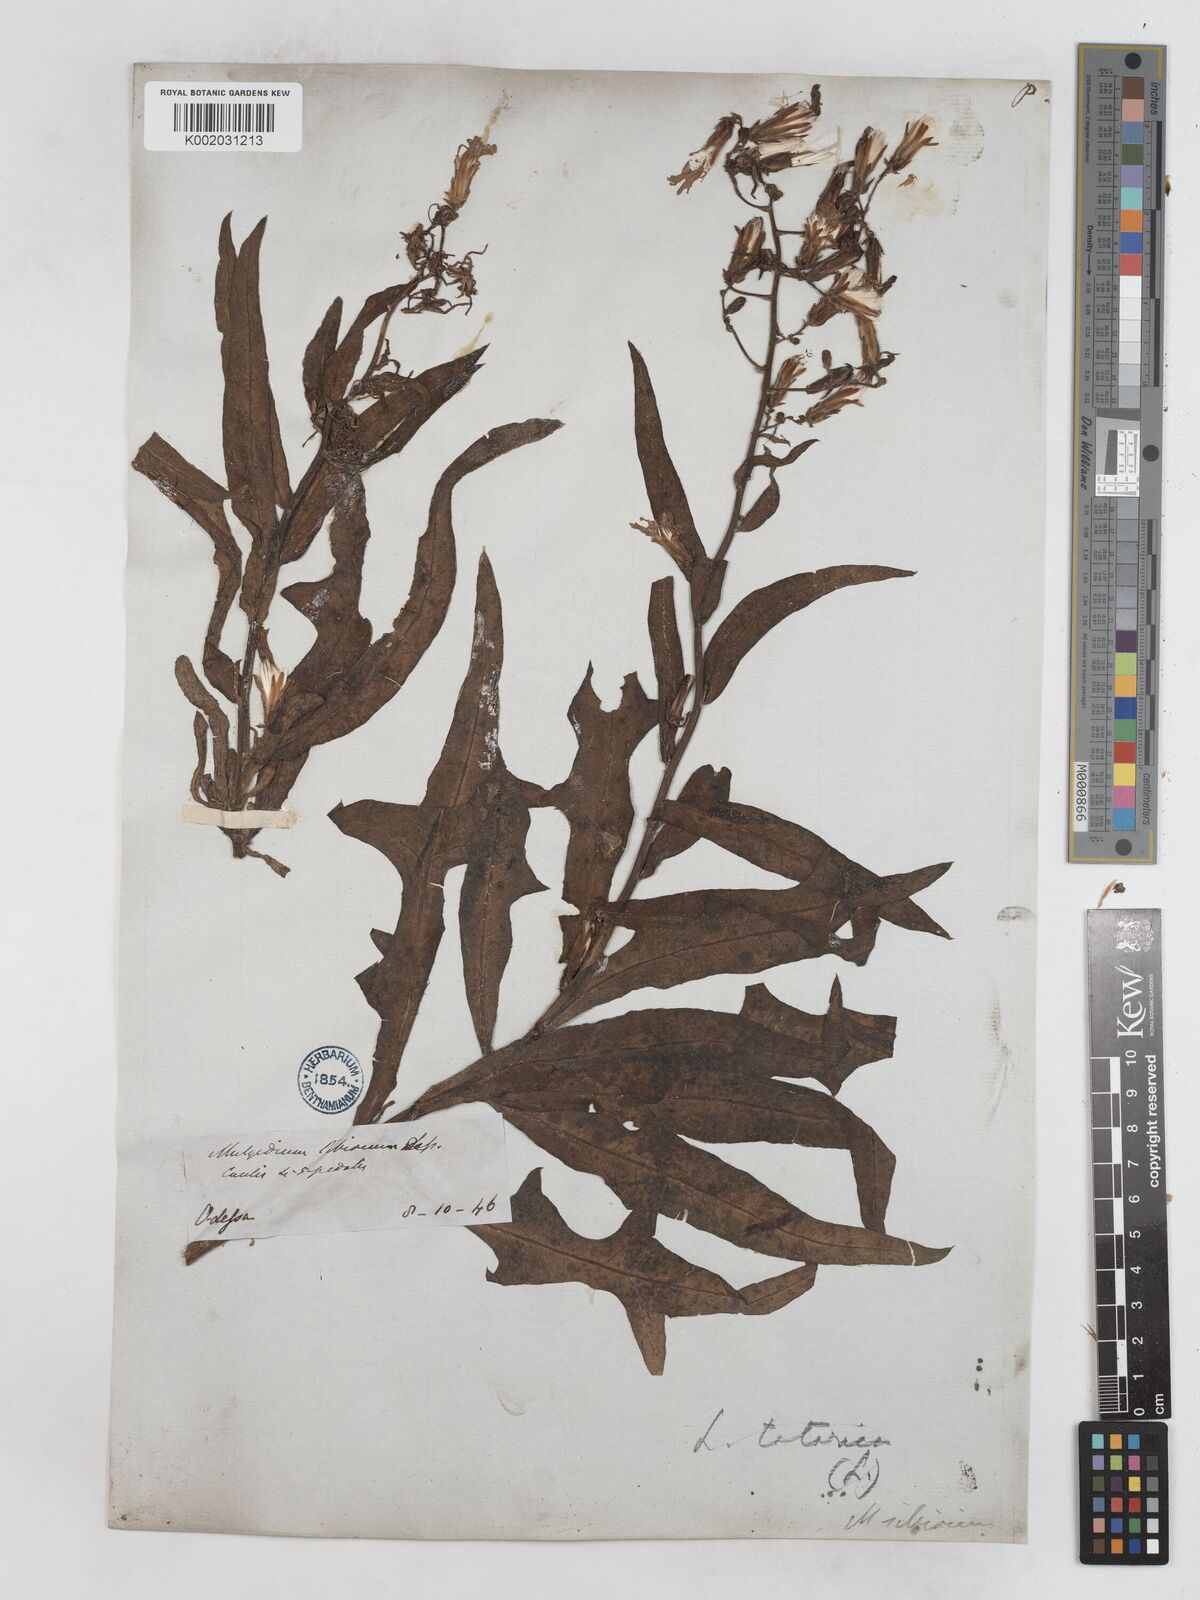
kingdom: Plantae
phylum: Tracheophyta
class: Magnoliopsida
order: Asterales
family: Asteraceae
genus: Lactuca
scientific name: Lactuca tatarica
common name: Blue lettuce
